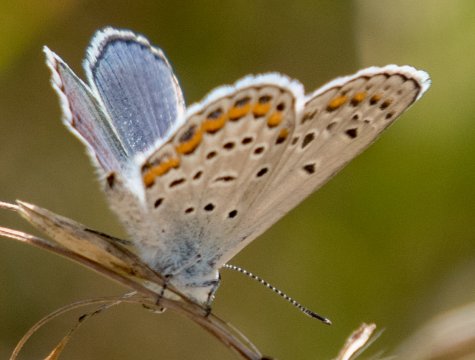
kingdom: Animalia
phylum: Arthropoda
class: Insecta
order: Lepidoptera
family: Lycaenidae
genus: Lycaeides
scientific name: Lycaeides melissa
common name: Melissa Blue
